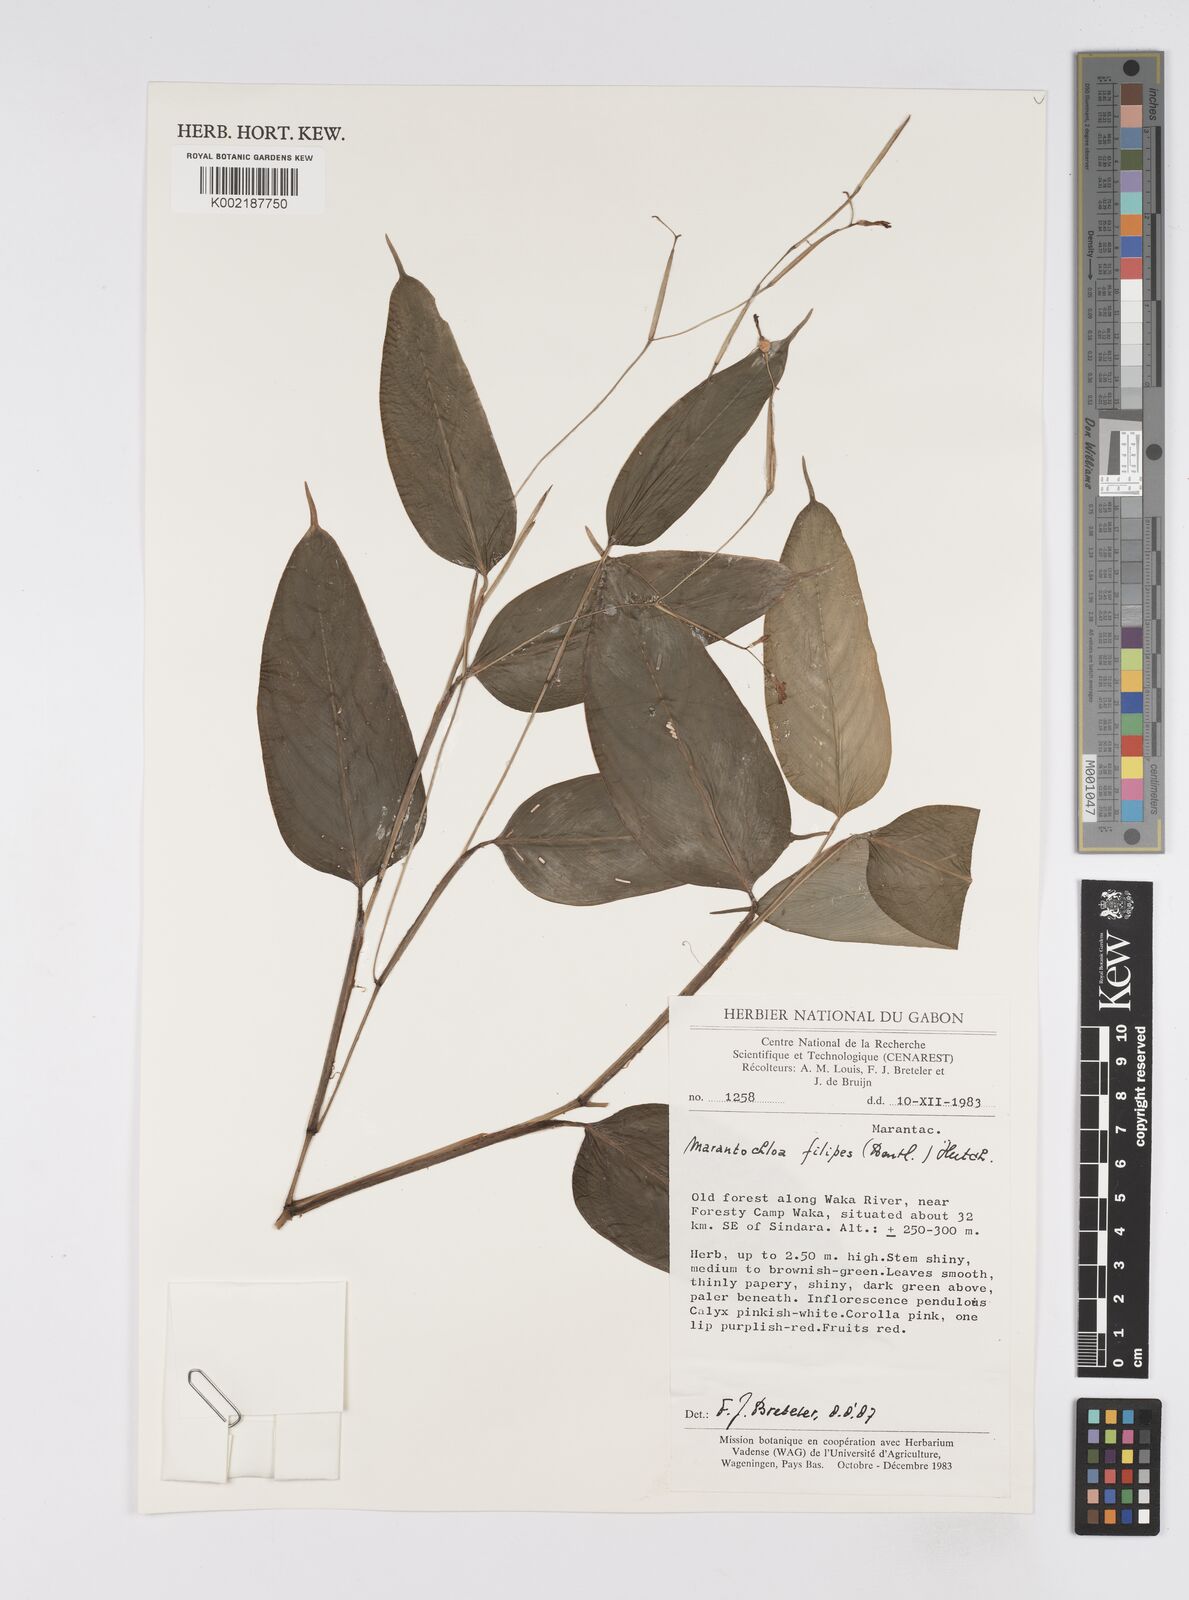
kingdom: Plantae
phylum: Tracheophyta
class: Liliopsida
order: Zingiberales
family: Marantaceae
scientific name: Marantaceae
